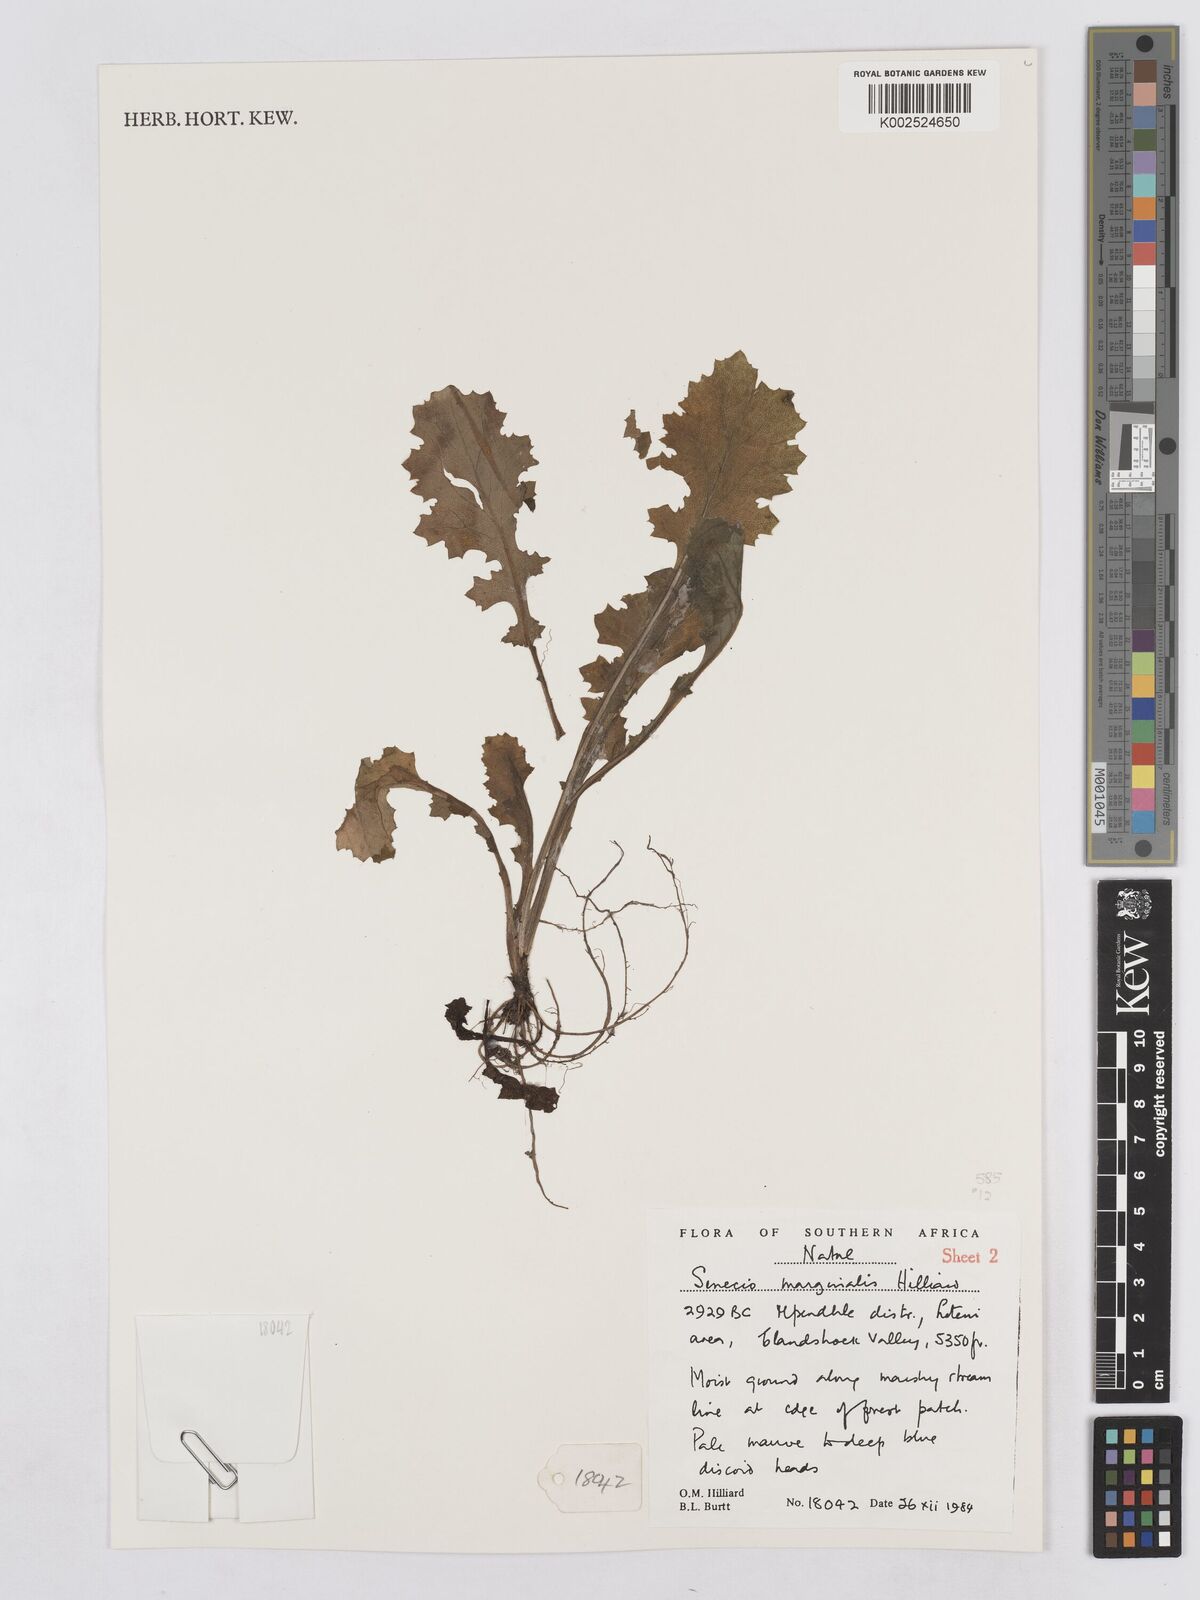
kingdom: Plantae
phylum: Tracheophyta
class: Magnoliopsida
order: Asterales
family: Asteraceae
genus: Senecio
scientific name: Senecio marginalis
